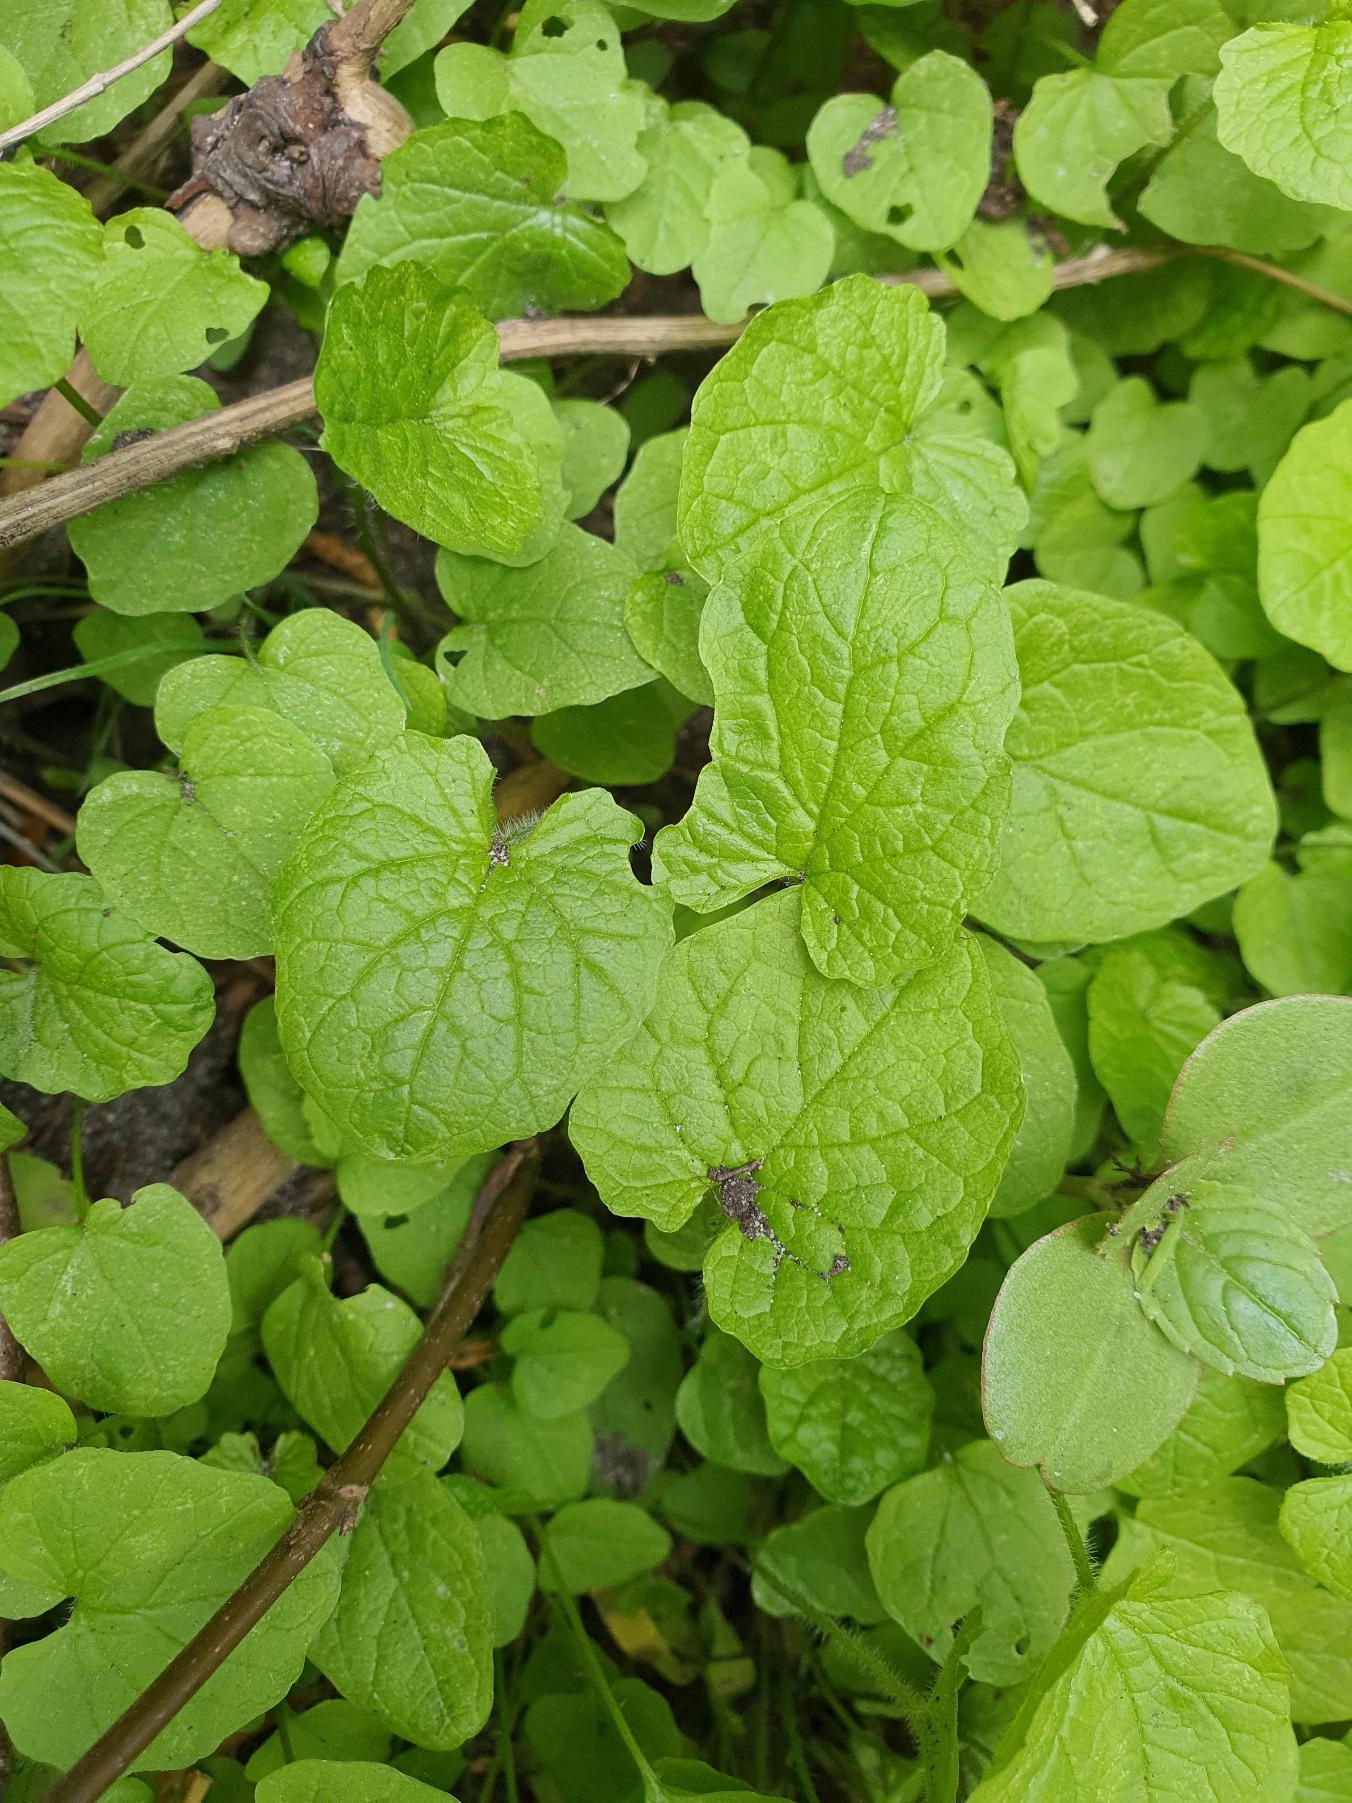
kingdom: Plantae
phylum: Tracheophyta
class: Magnoliopsida
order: Brassicales
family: Brassicaceae
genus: Alliaria
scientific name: Alliaria petiolata
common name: Løgkarse
